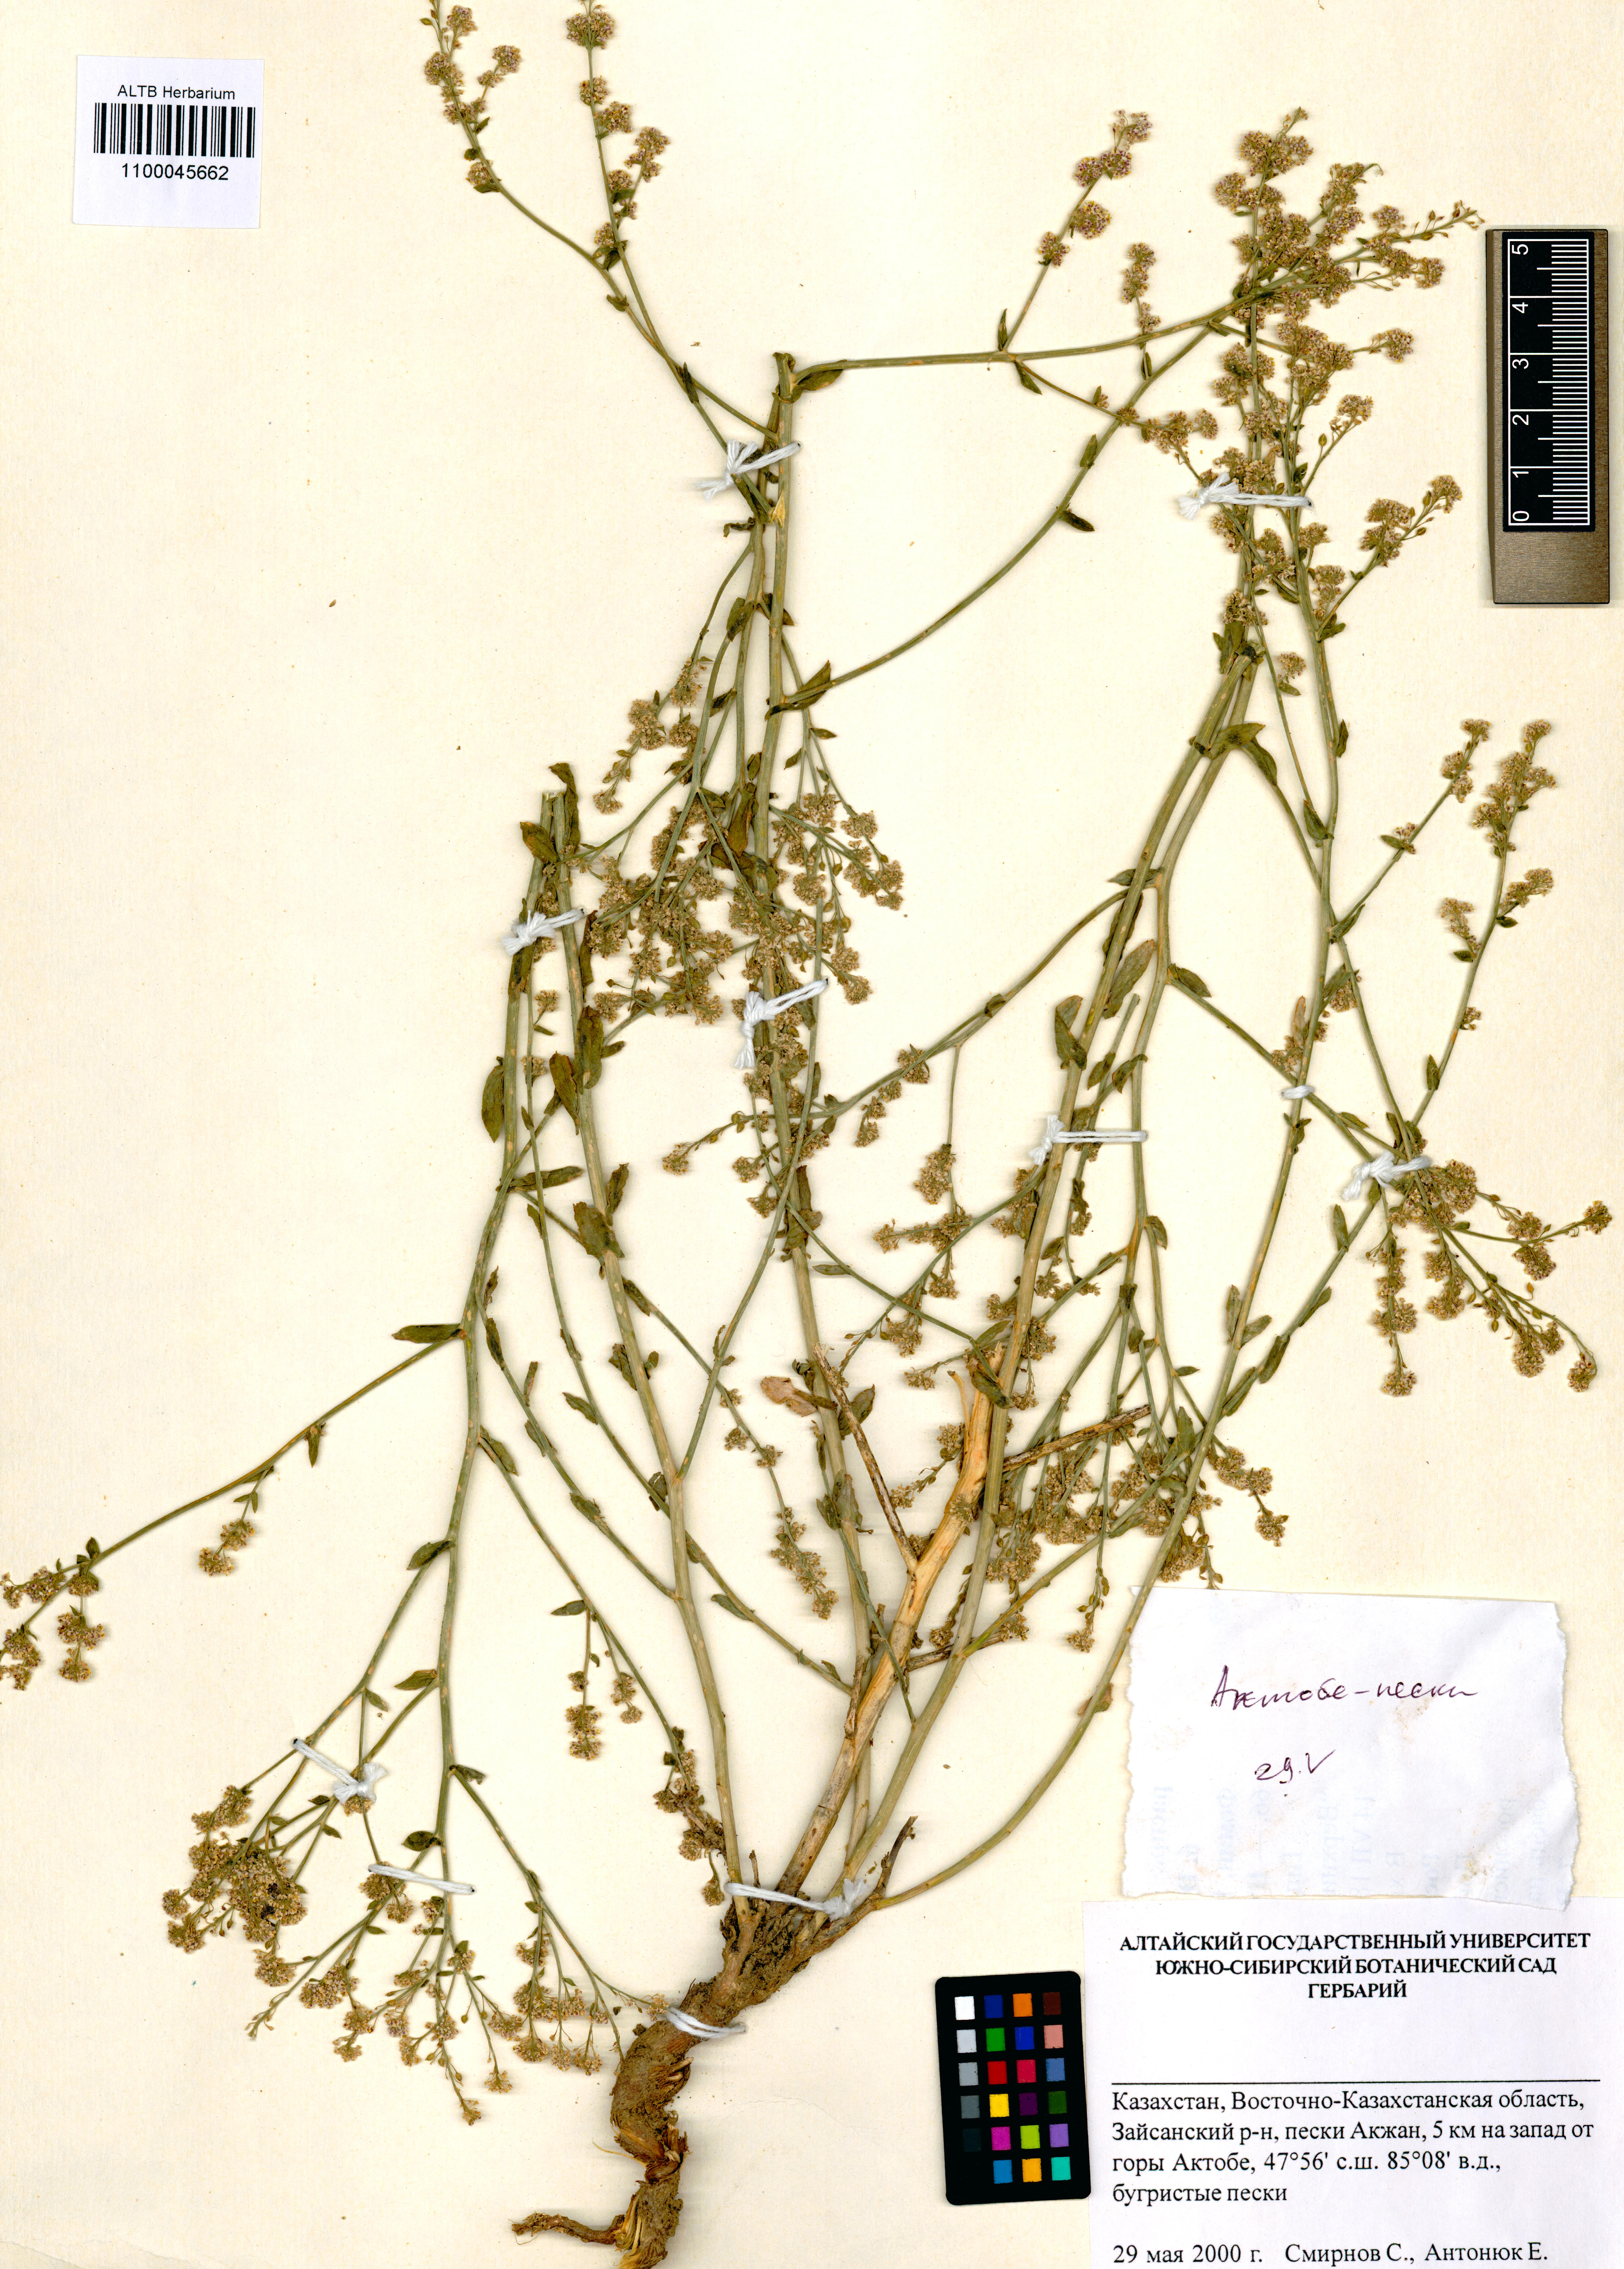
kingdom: Plantae
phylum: Tracheophyta
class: Magnoliopsida
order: Brassicales
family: Brassicaceae
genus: Lepidium
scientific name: Lepidium cordatum
